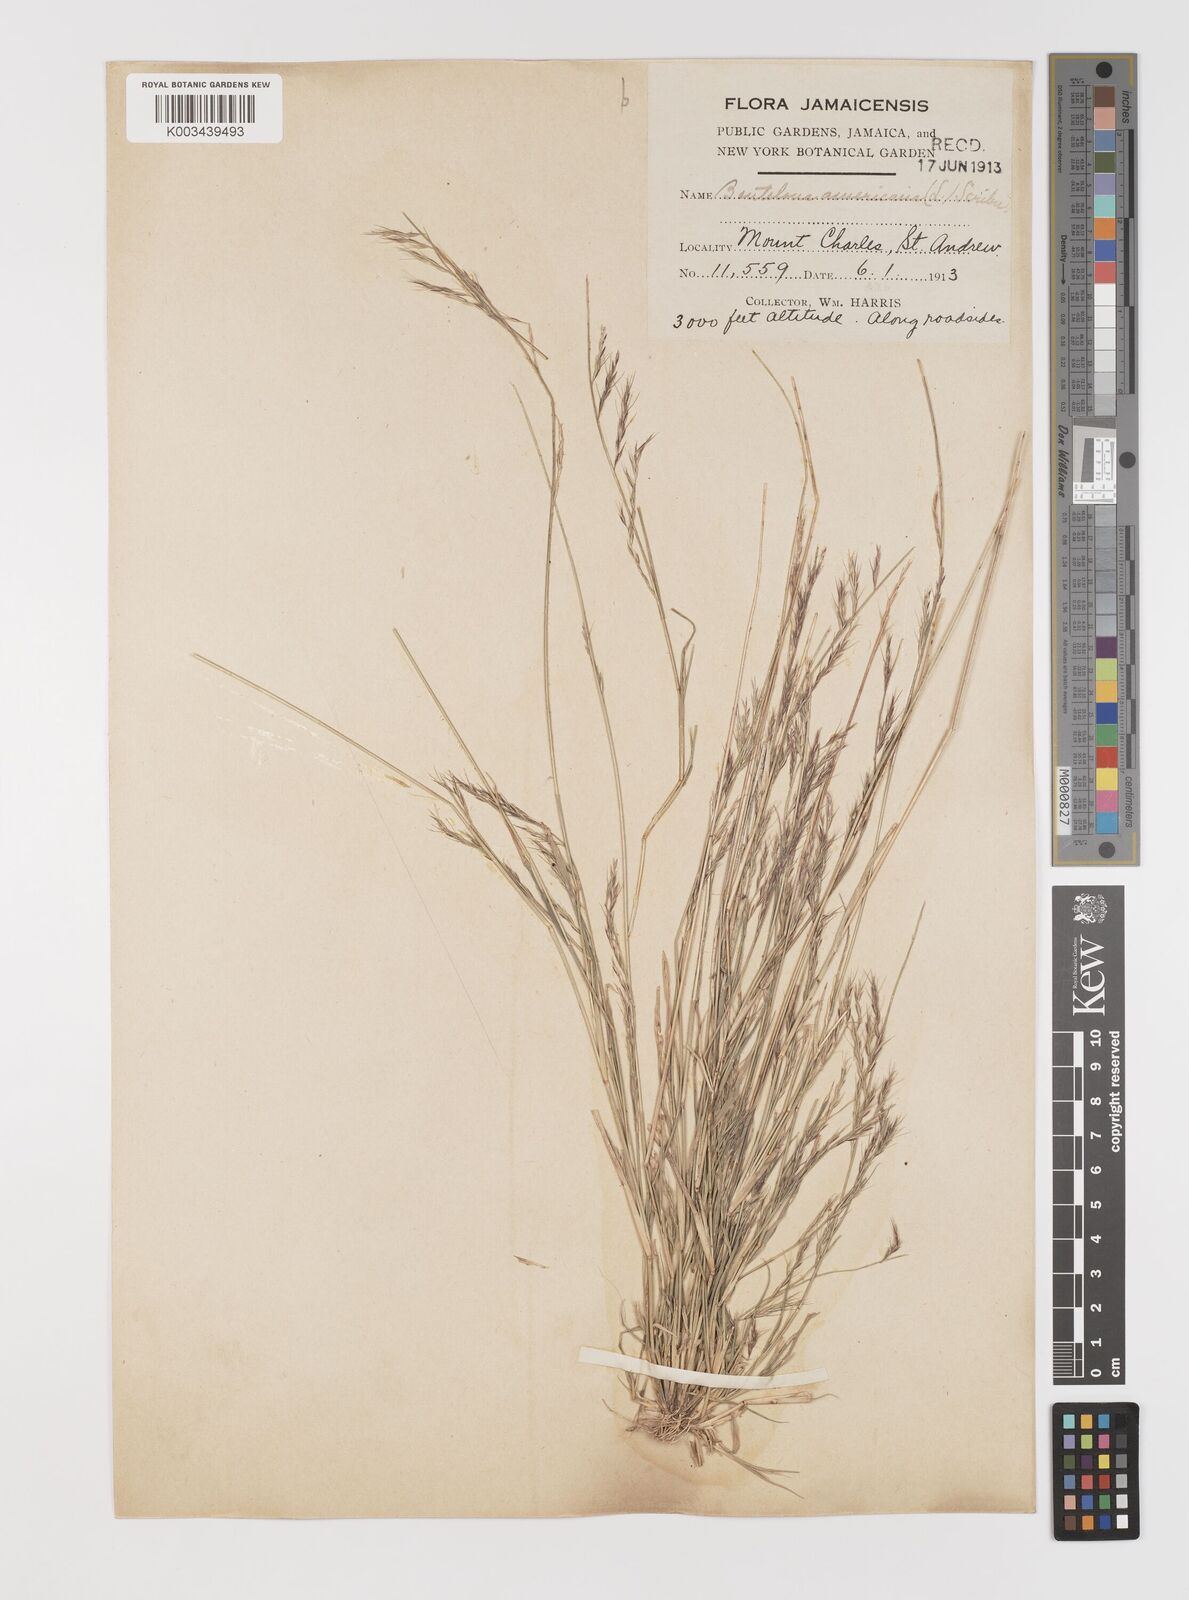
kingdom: Plantae
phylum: Tracheophyta
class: Liliopsida
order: Poales
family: Poaceae
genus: Bouteloua
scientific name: Bouteloua americana
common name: Mule grass
